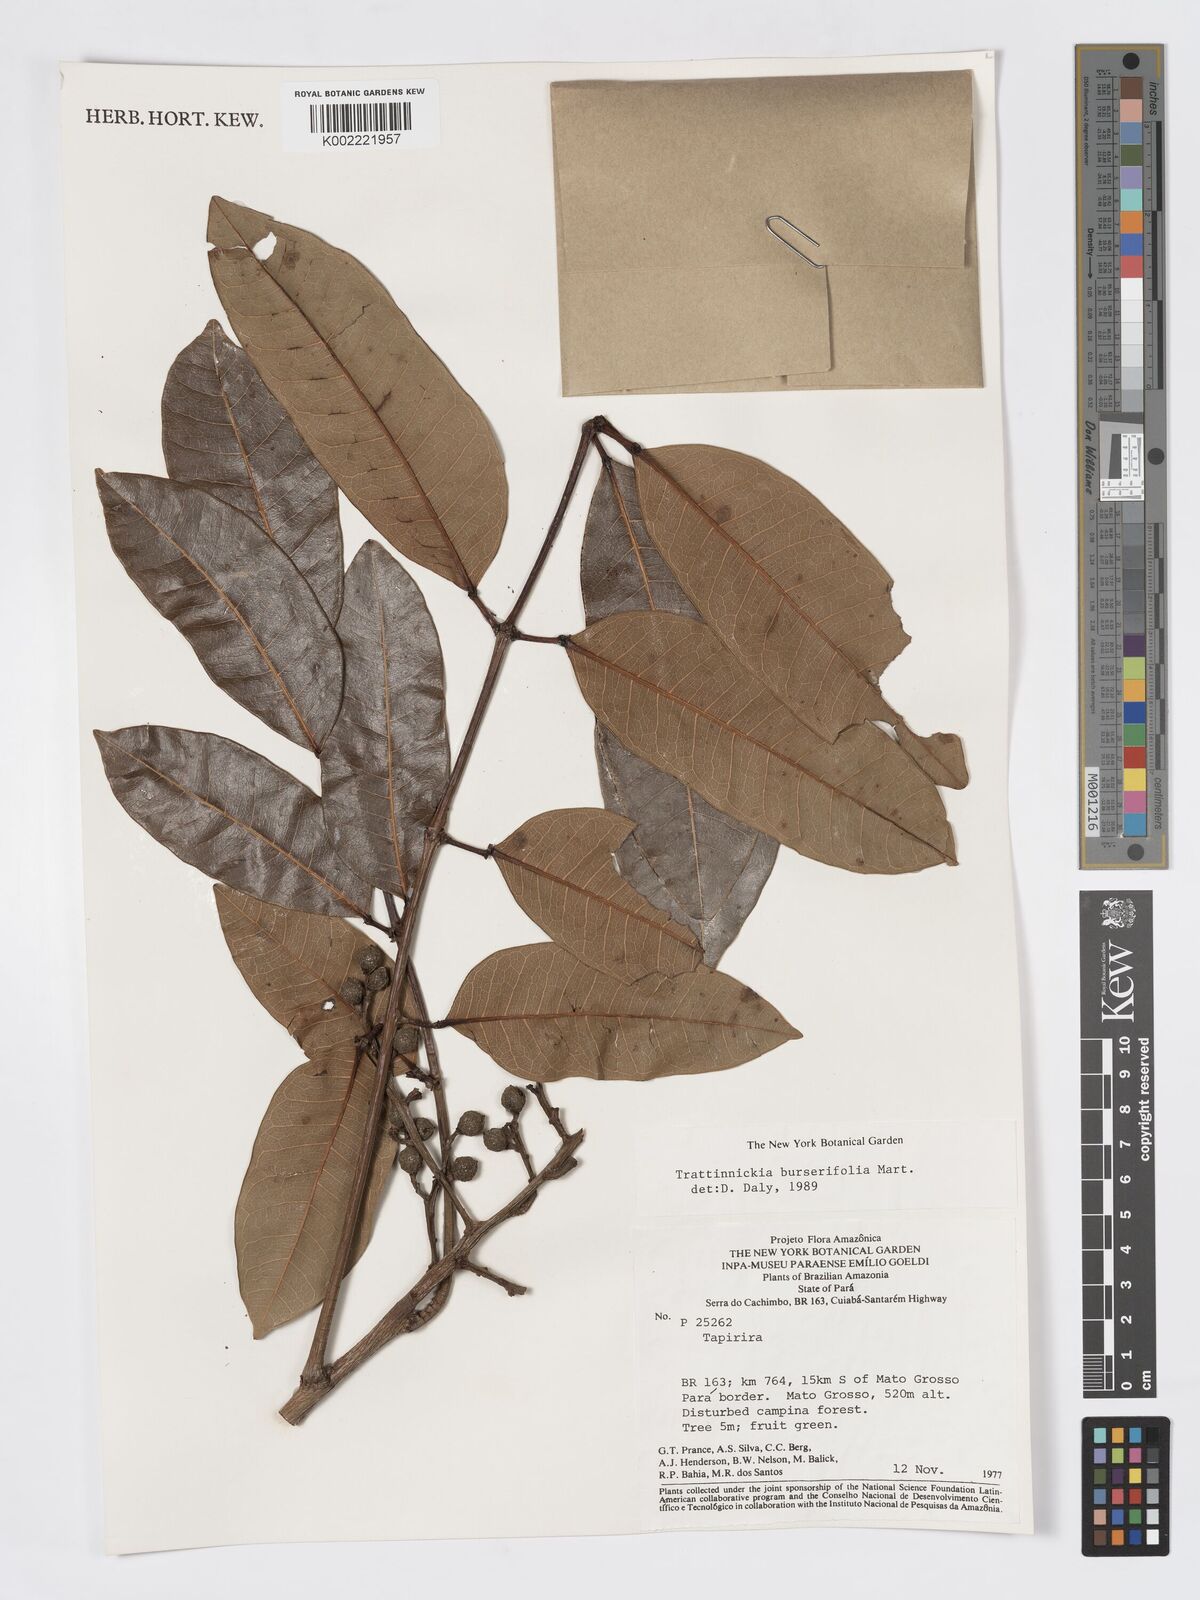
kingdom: Plantae
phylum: Tracheophyta
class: Magnoliopsida
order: Sapindales
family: Burseraceae
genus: Trattinnickia
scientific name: Trattinnickia burserifolia
